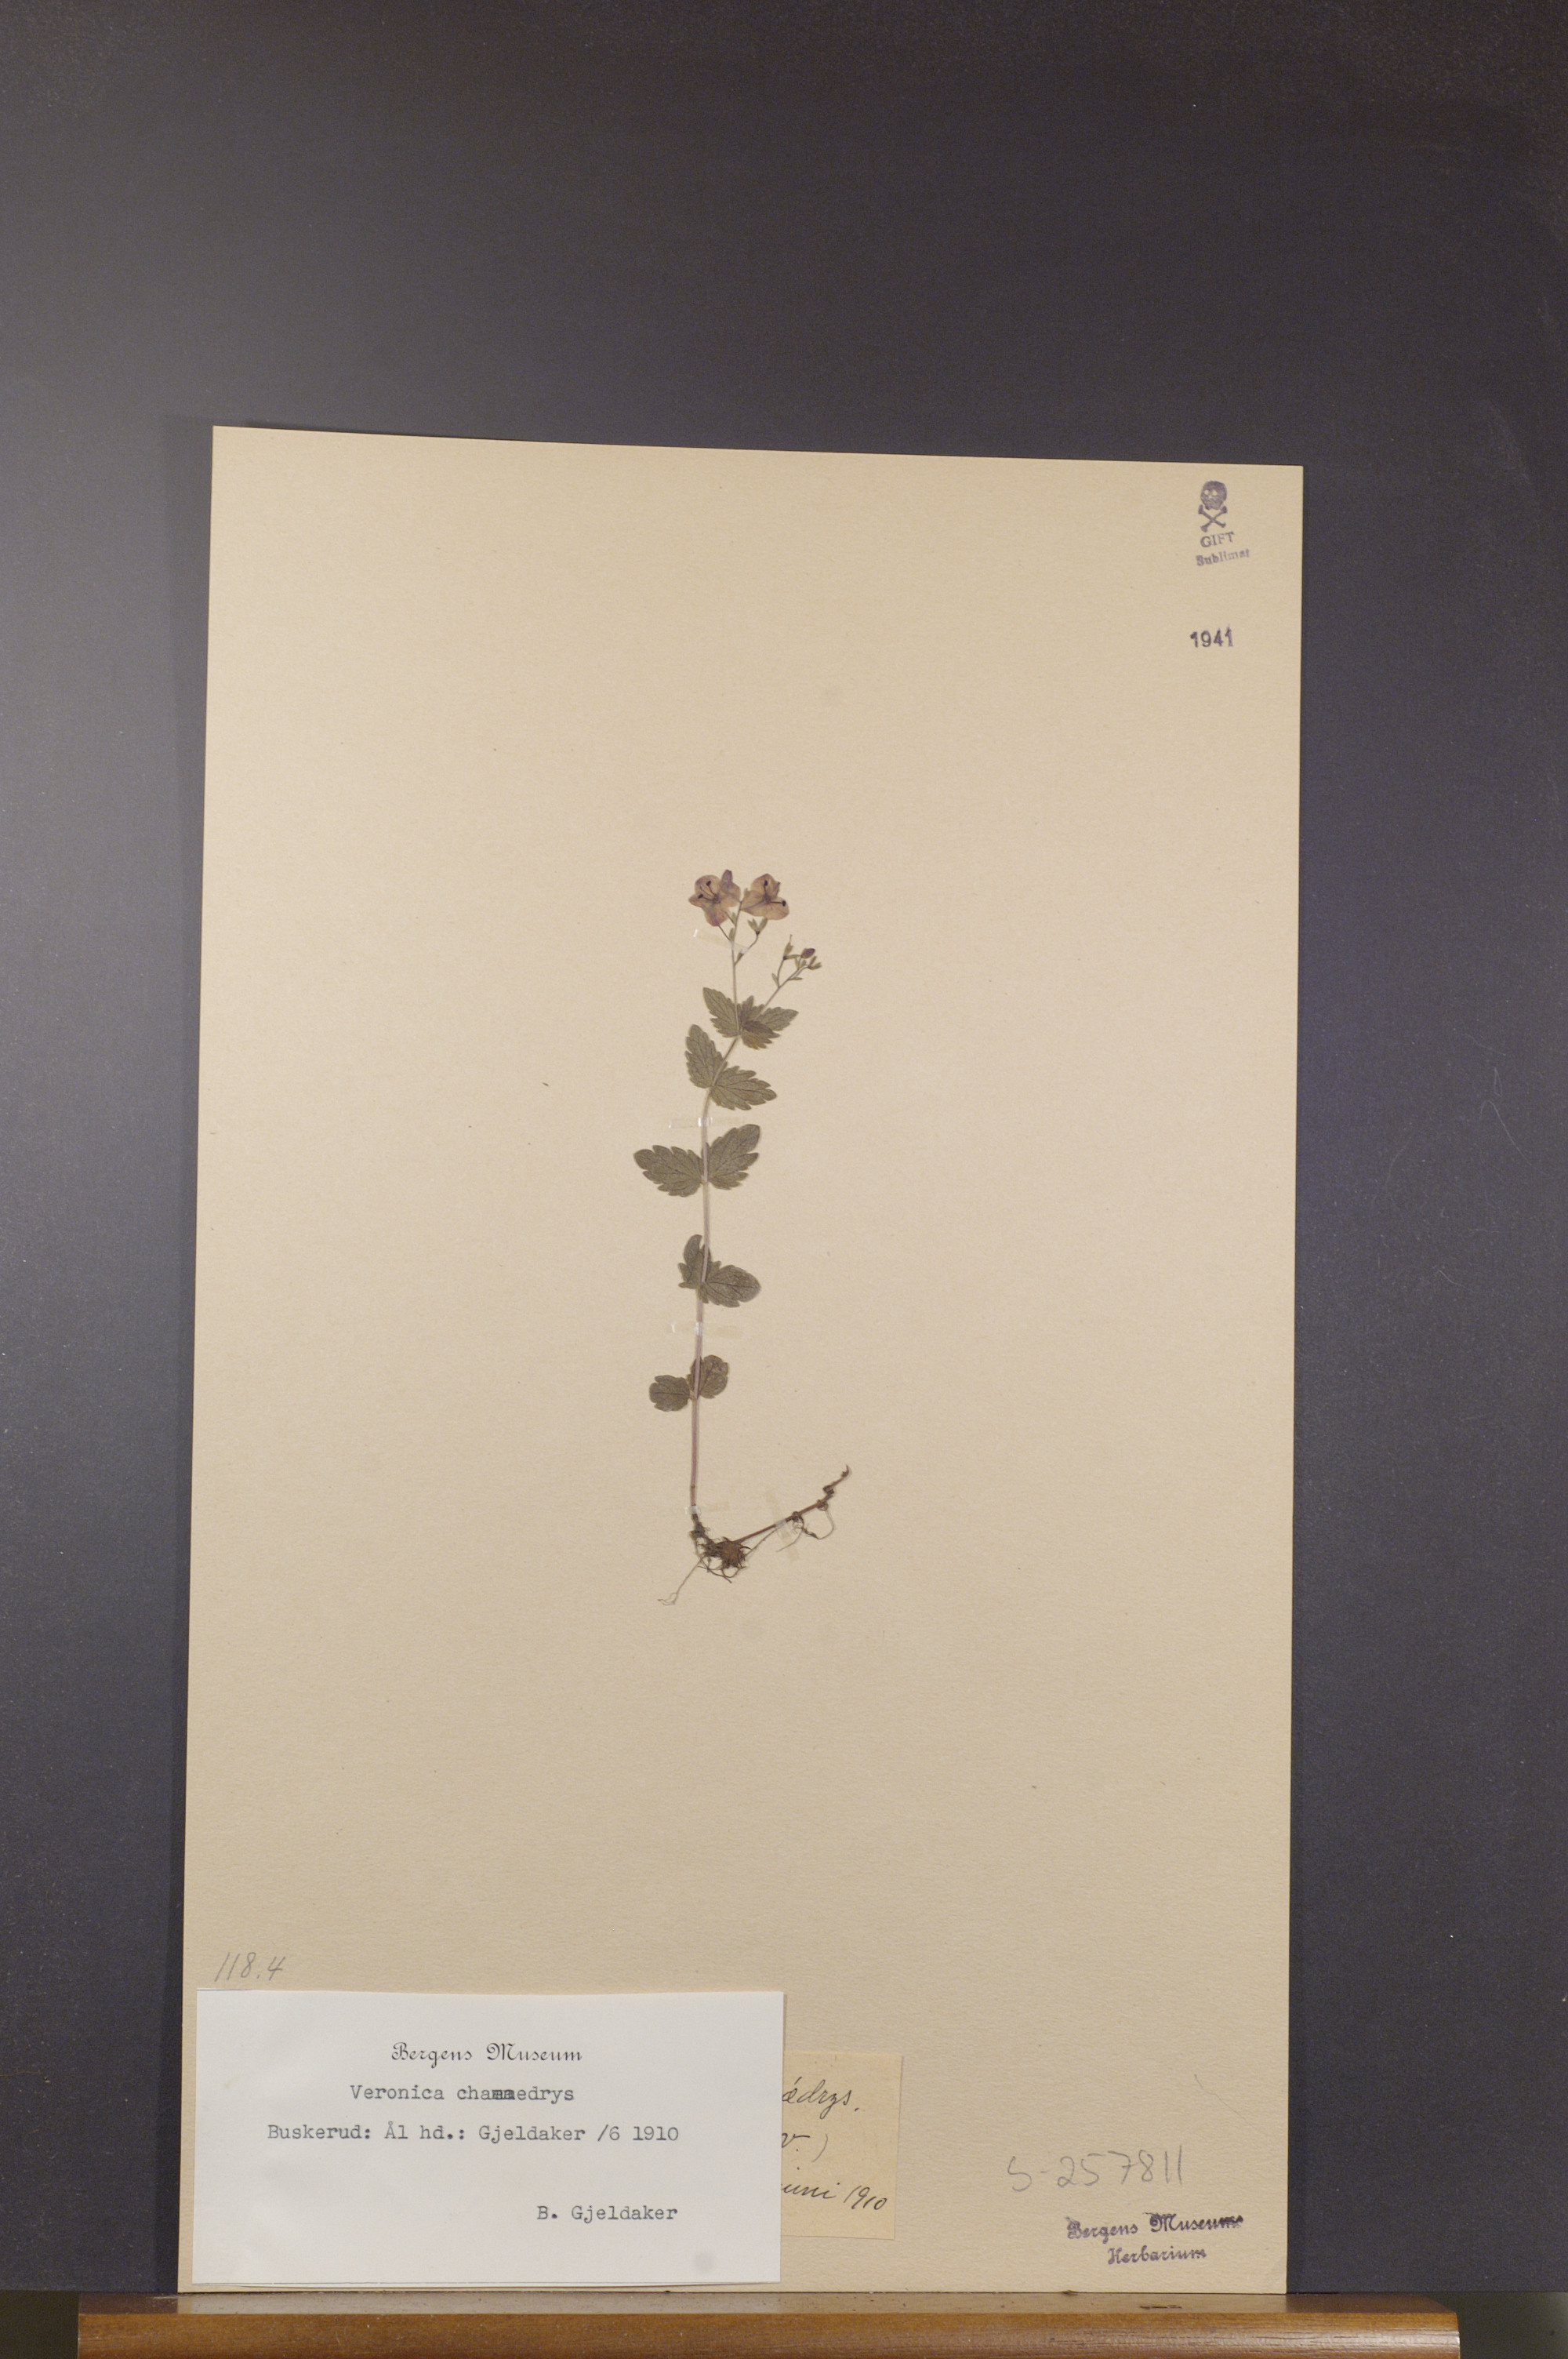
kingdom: Plantae
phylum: Tracheophyta
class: Magnoliopsida
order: Lamiales
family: Plantaginaceae
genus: Veronica
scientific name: Veronica chamaedrys
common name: Germander speedwell
